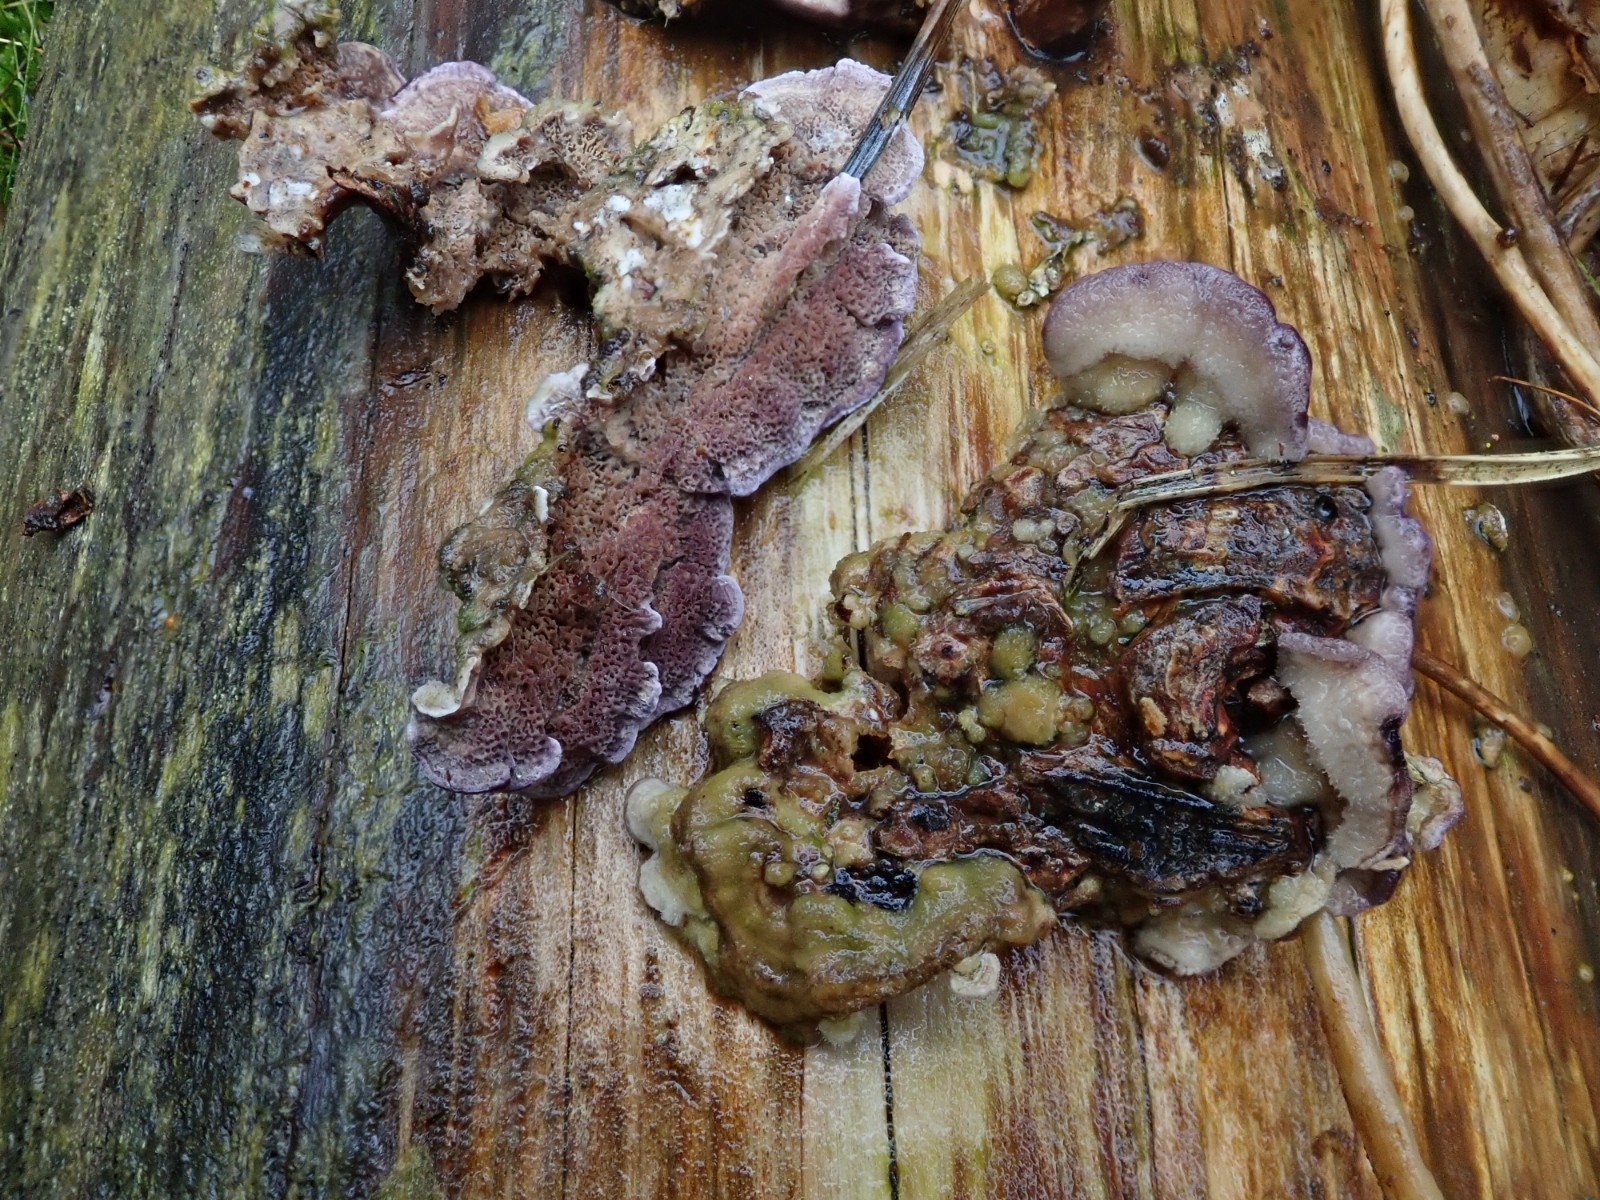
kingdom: Fungi
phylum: Basidiomycota
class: Agaricomycetes
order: Hymenochaetales
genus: Trichaptum
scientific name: Trichaptum abietinum
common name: almindelig violporesvamp
